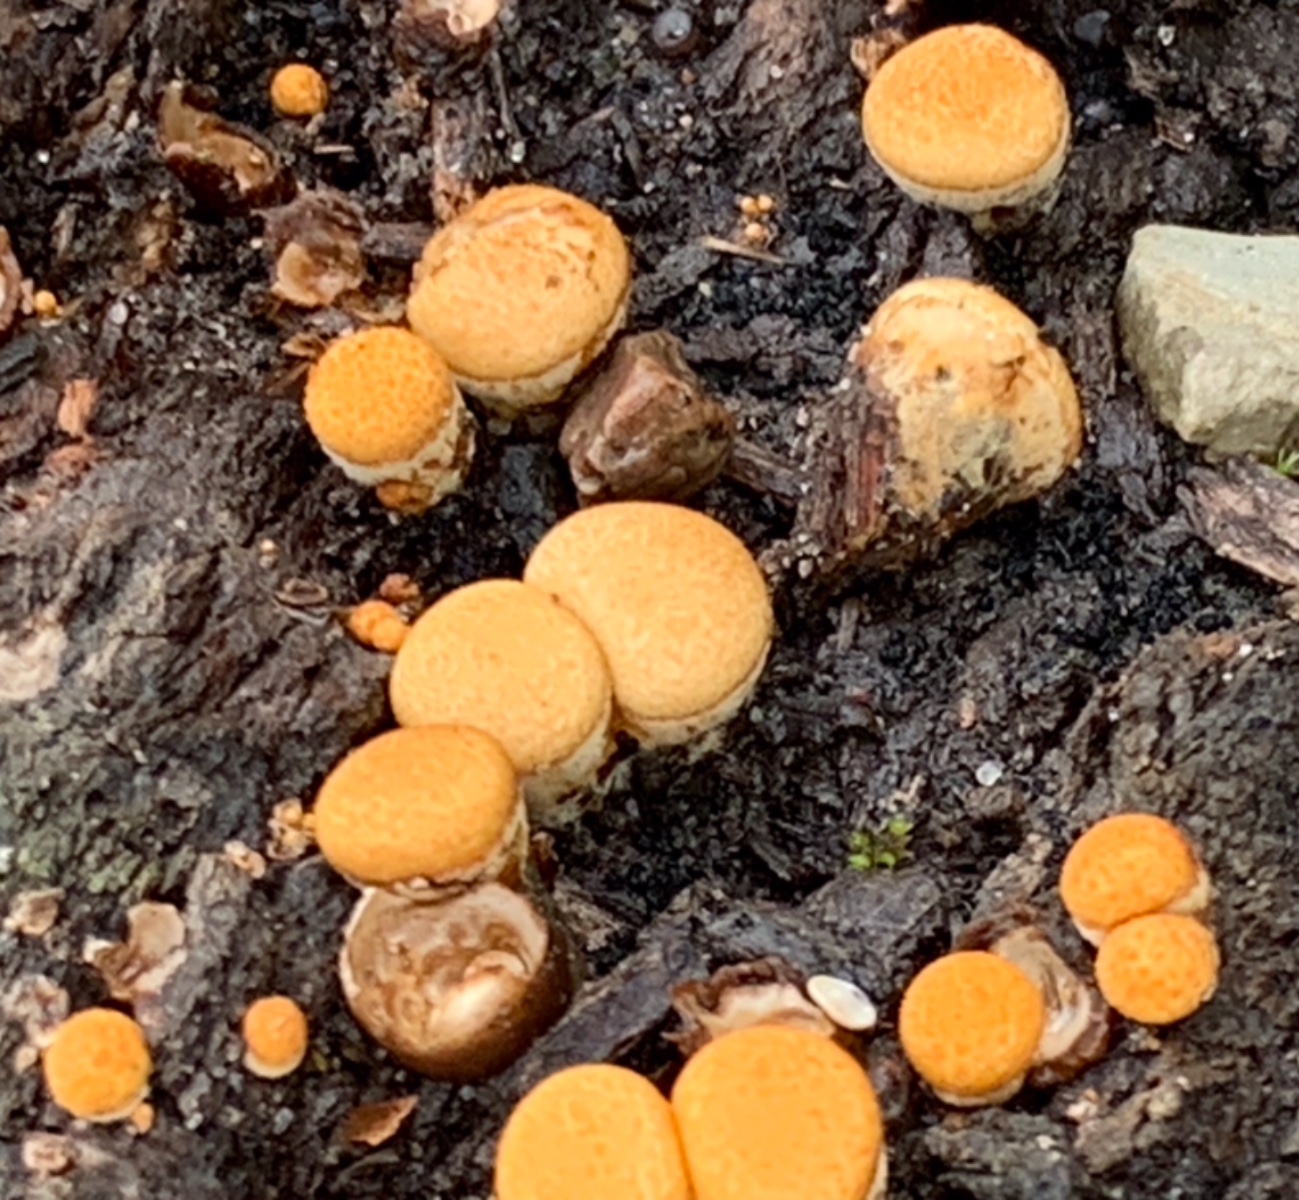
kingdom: Fungi
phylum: Basidiomycota
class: Agaricomycetes
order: Agaricales
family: Nidulariaceae
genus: Crucibulum
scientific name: Crucibulum crucibuliforme
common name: krukkesvamp
